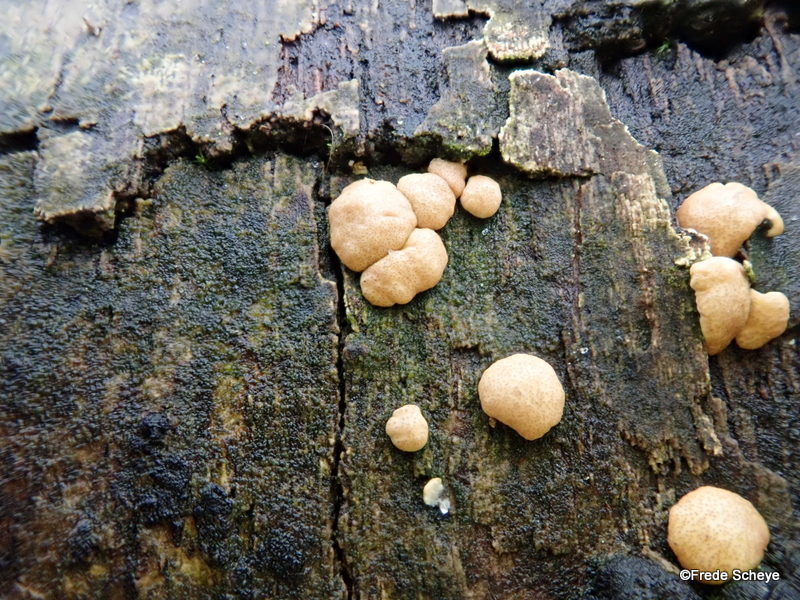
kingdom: Fungi
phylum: Ascomycota
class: Sordariomycetes
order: Hypocreales
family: Hypocreaceae
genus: Trichoderma
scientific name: Trichoderma europaeum
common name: rosabrun kødkerne
